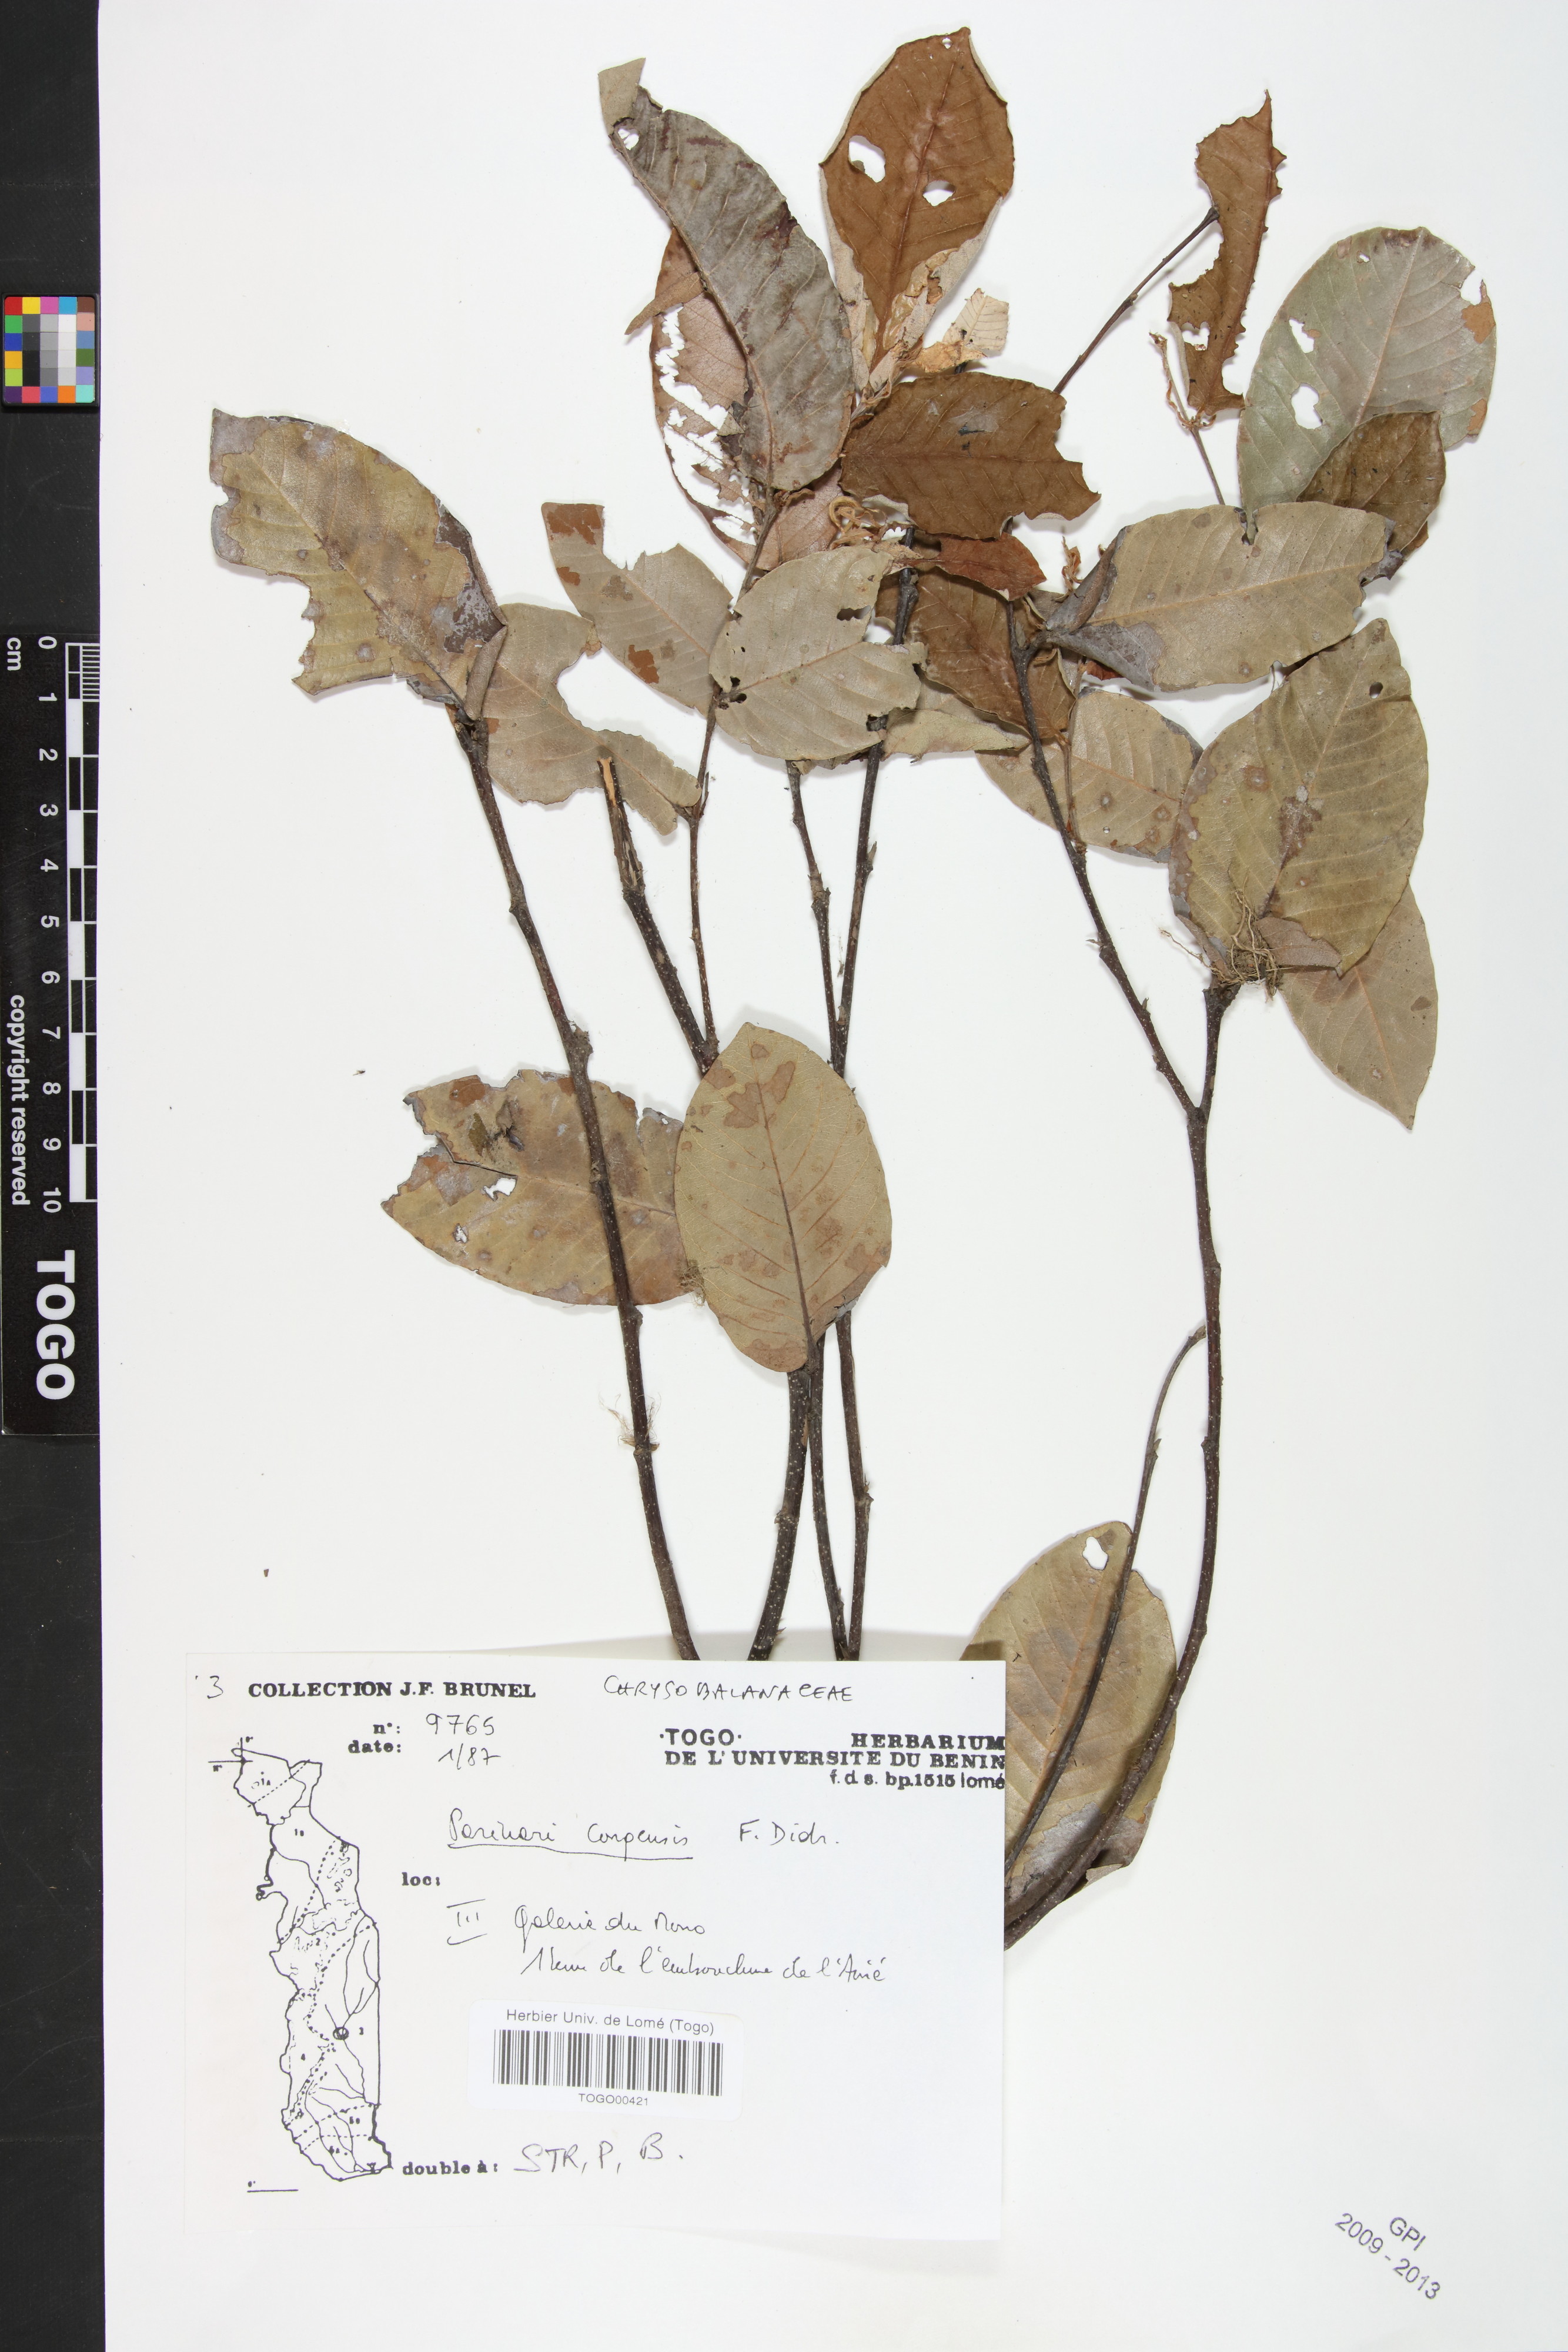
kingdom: Plantae
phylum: Tracheophyta
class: Magnoliopsida
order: Malpighiales
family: Chrysobalanaceae
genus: Parinari
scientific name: Parinari congensis
